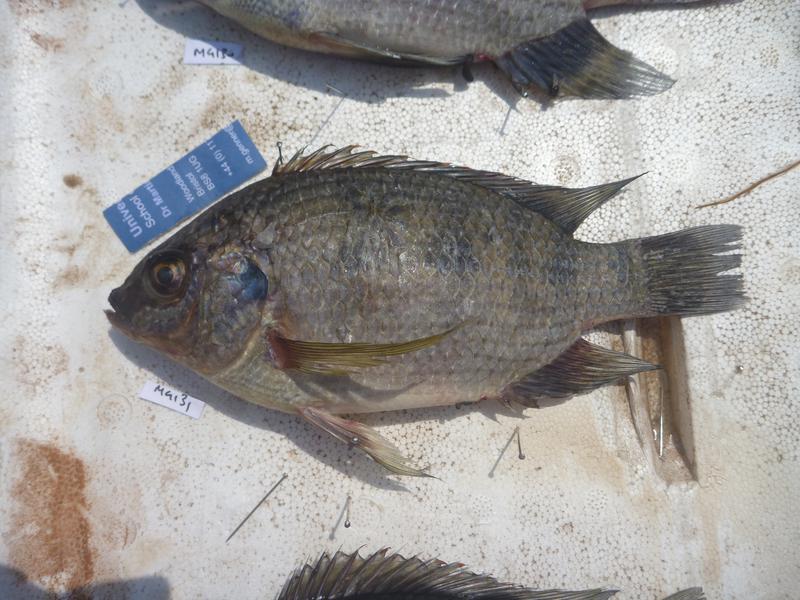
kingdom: Animalia
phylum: Chordata
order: Perciformes
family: Cichlidae
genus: Oreochromis
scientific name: Oreochromis upembae
